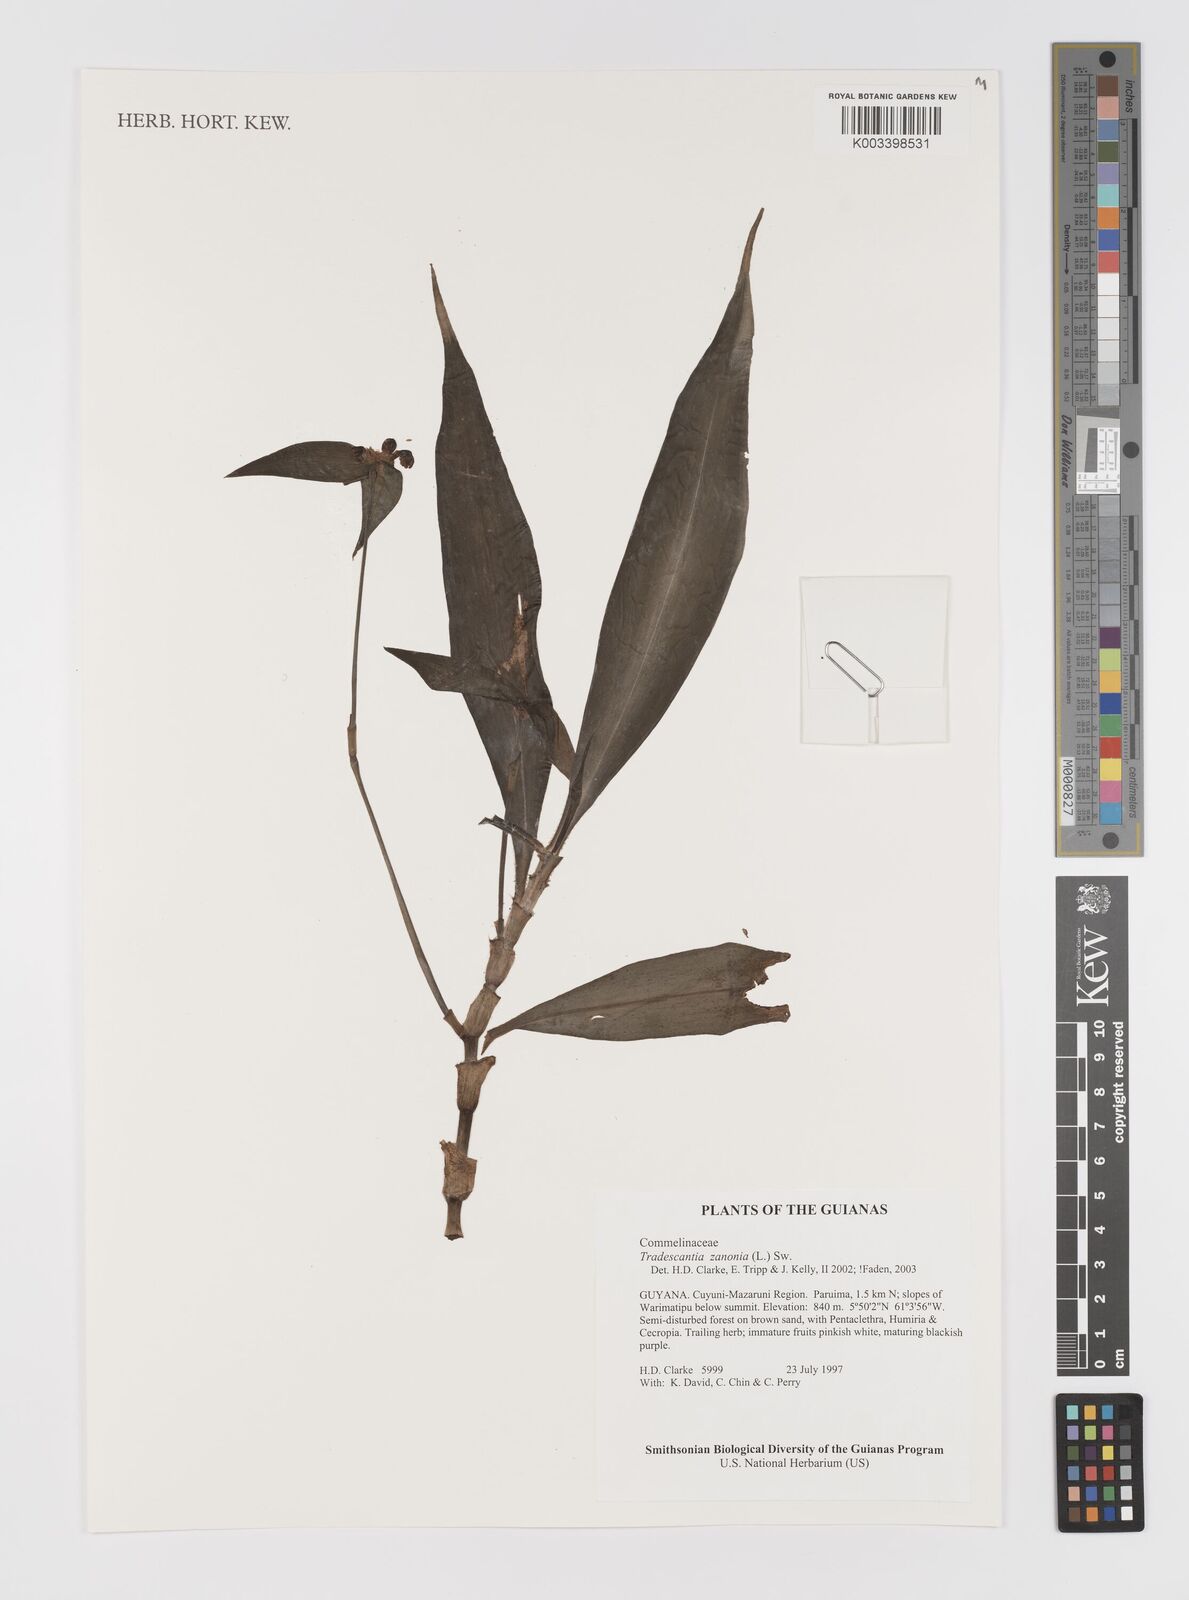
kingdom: Plantae
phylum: Tracheophyta
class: Liliopsida
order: Commelinales
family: Commelinaceae
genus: Tradescantia
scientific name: Tradescantia zanonia
